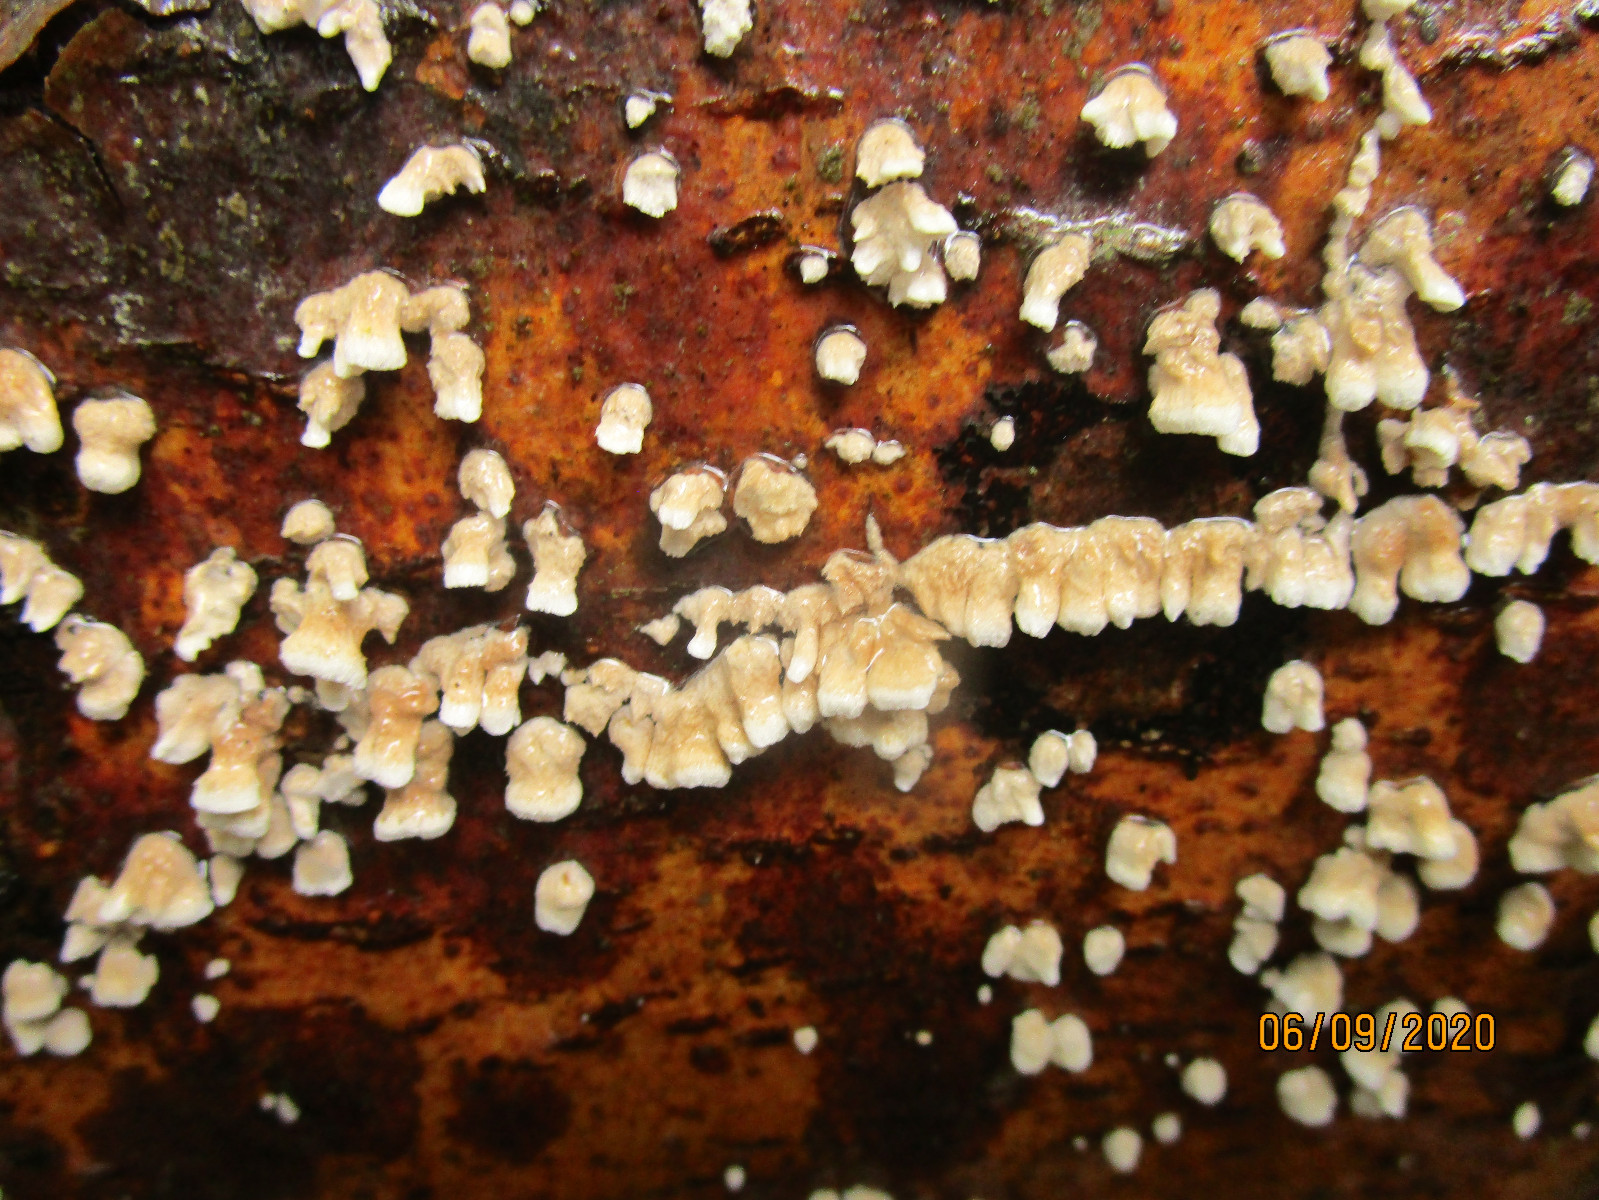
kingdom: Fungi
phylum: Basidiomycota
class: Agaricomycetes
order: Amylocorticiales
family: Amylocorticiaceae
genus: Plicaturopsis
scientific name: Plicaturopsis crispa
